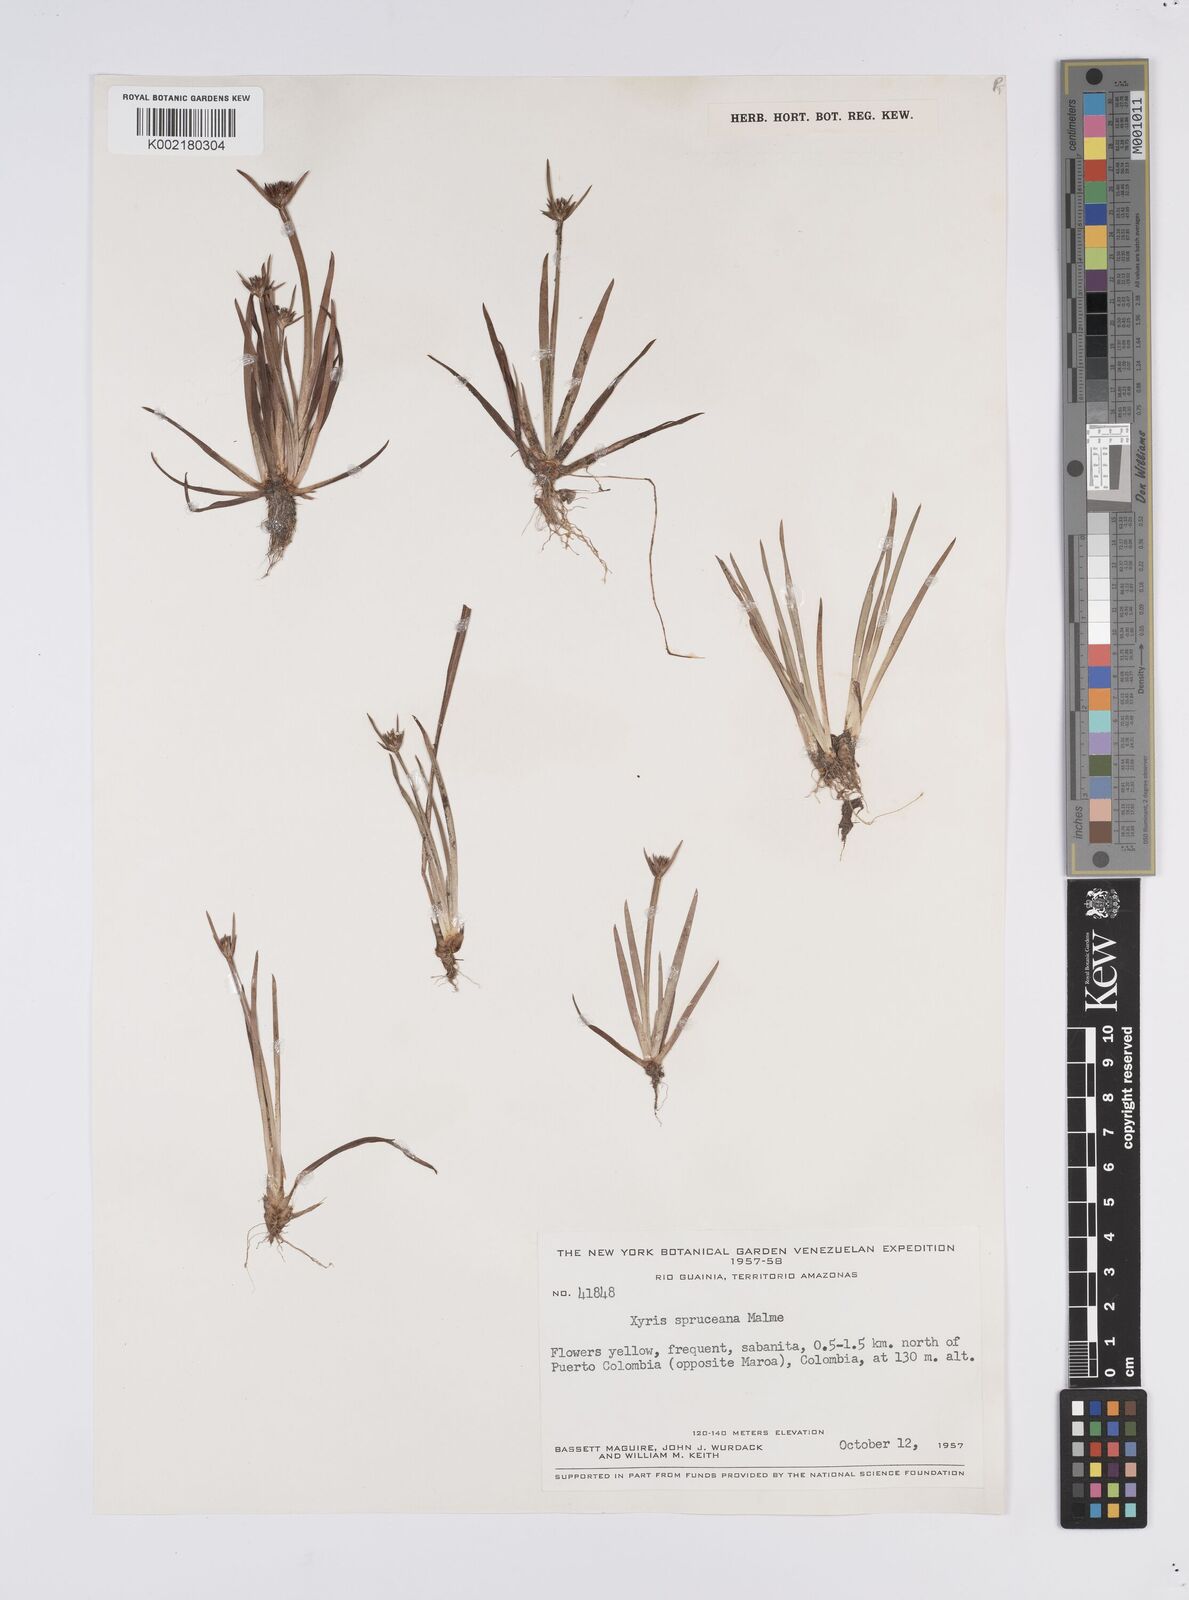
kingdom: Plantae
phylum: Tracheophyta
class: Liliopsida
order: Poales
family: Xyridaceae
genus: Xyris
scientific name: Xyris spruceana
